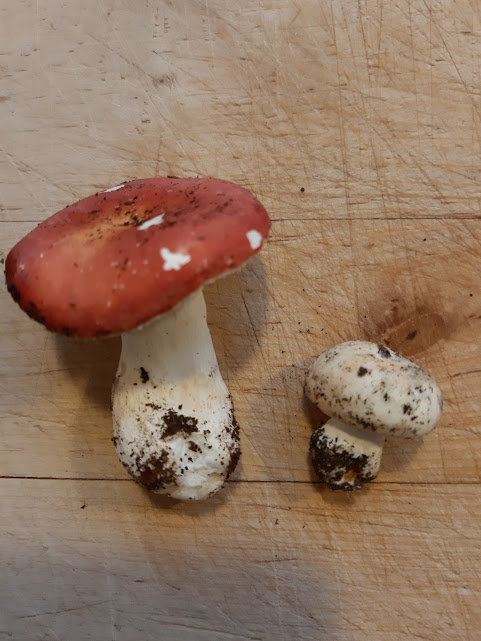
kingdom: Fungi
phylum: Basidiomycota
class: Agaricomycetes
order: Russulales
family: Russulaceae
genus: Russula
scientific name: Russula rosea
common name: fastkødet skørhat
